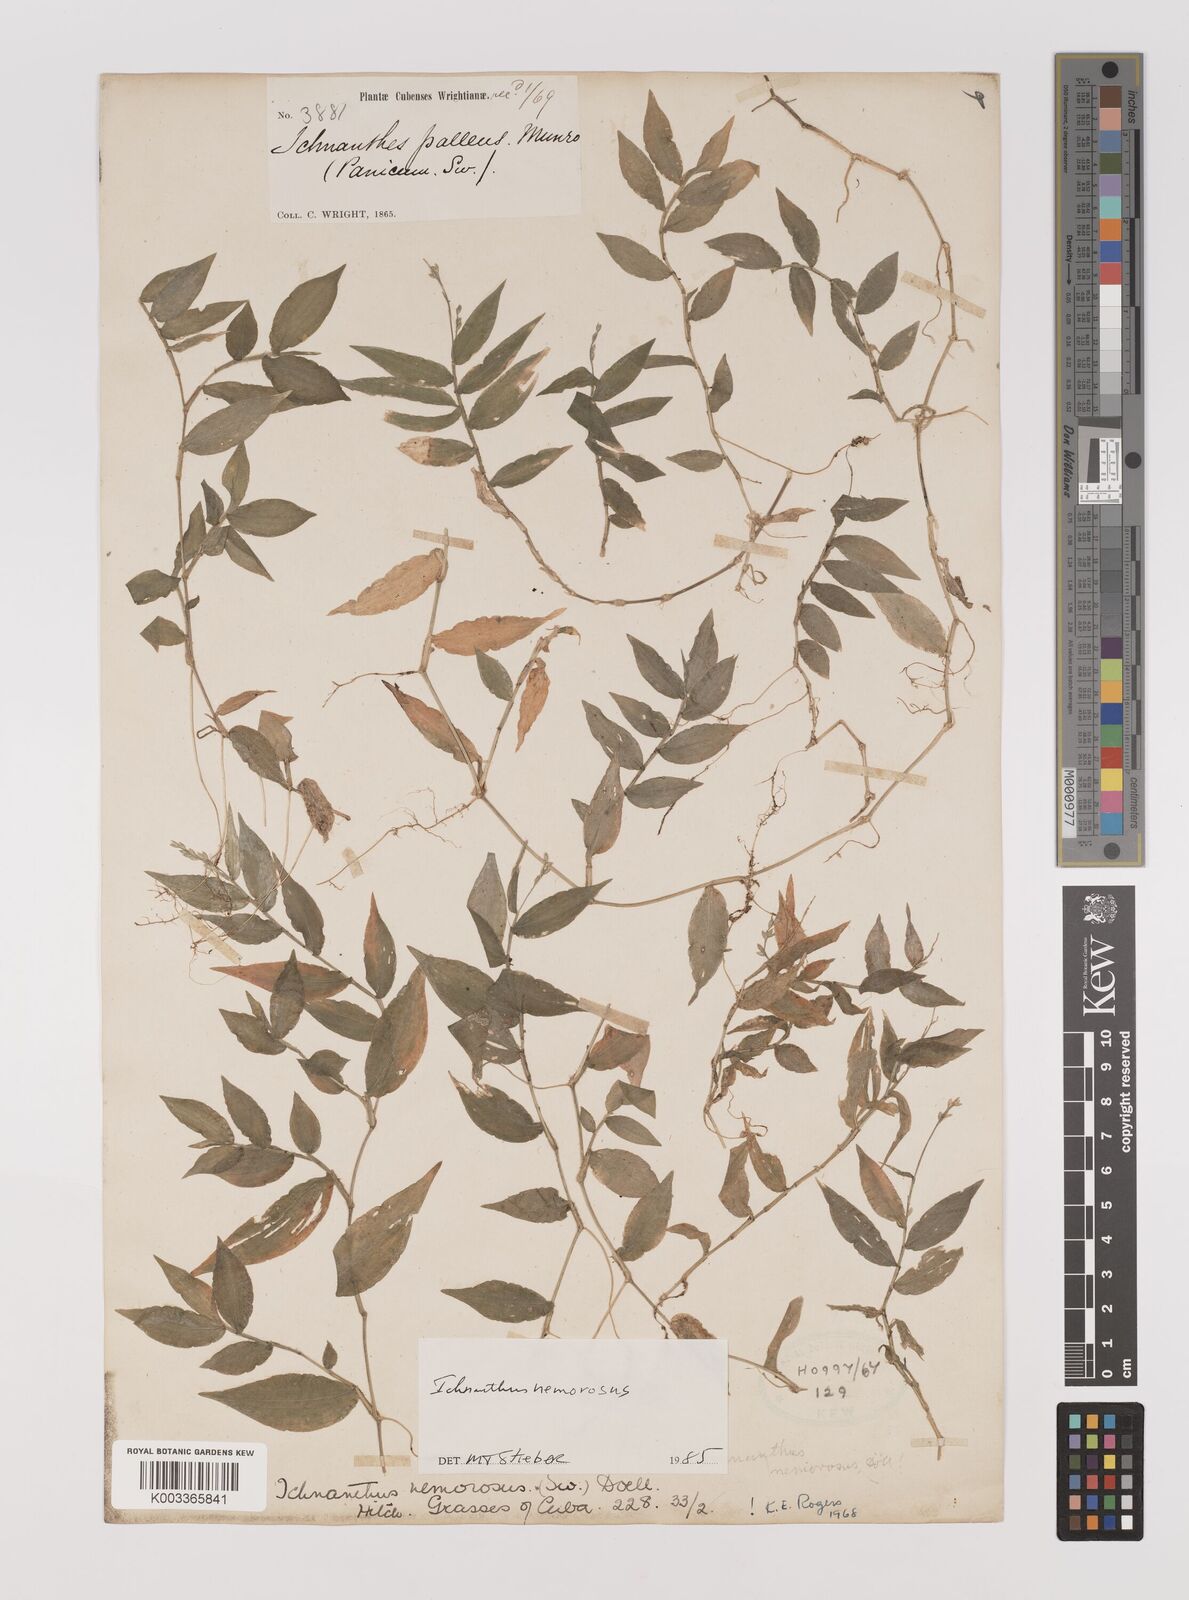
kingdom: Plantae
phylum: Tracheophyta
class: Liliopsida
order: Poales
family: Poaceae
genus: Ichnanthus
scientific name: Ichnanthus nemorosus
